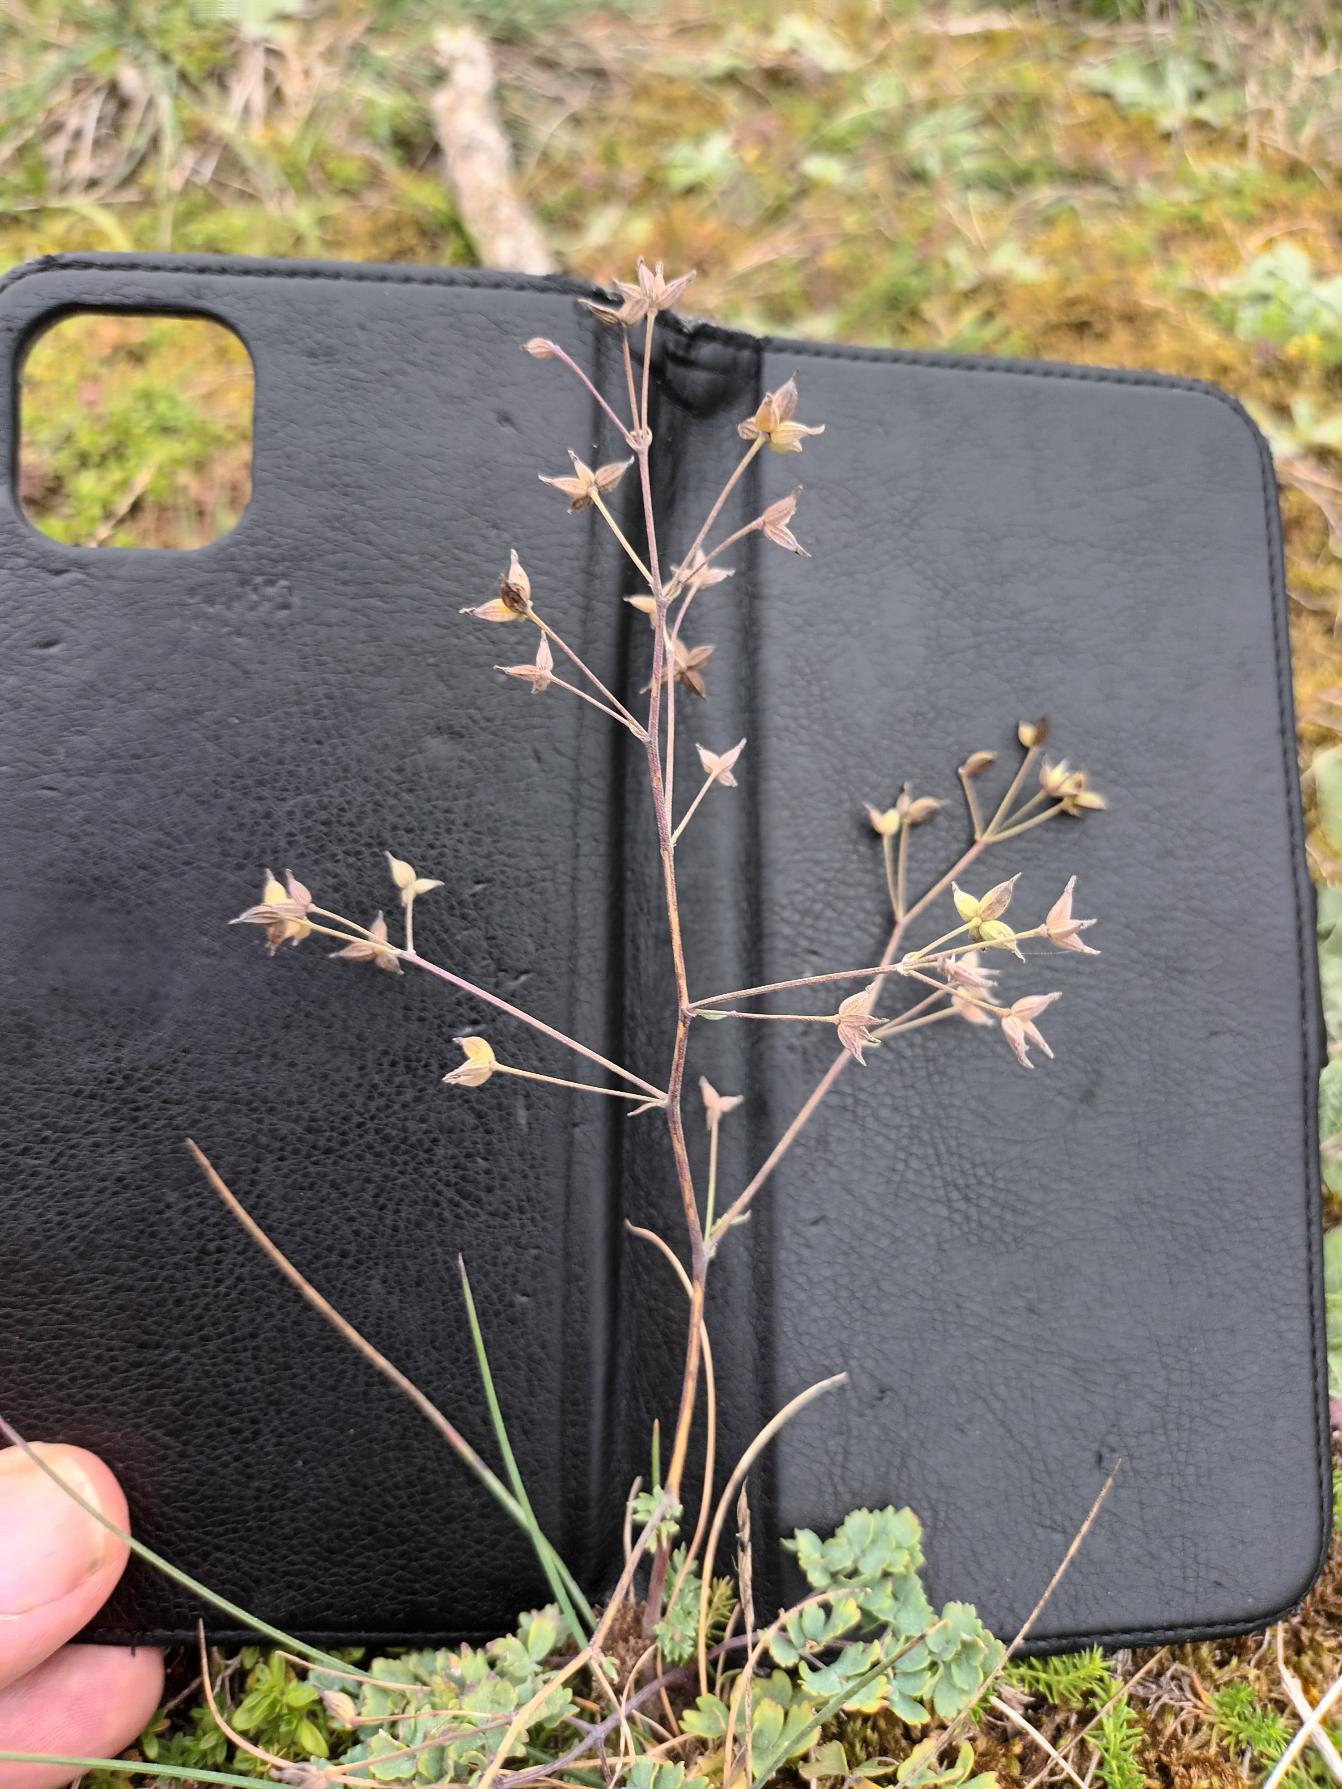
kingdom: Plantae
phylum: Tracheophyta
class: Magnoliopsida
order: Ranunculales
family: Ranunculaceae
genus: Thalictrum
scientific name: Thalictrum minus
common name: Sand-frøstjerne
